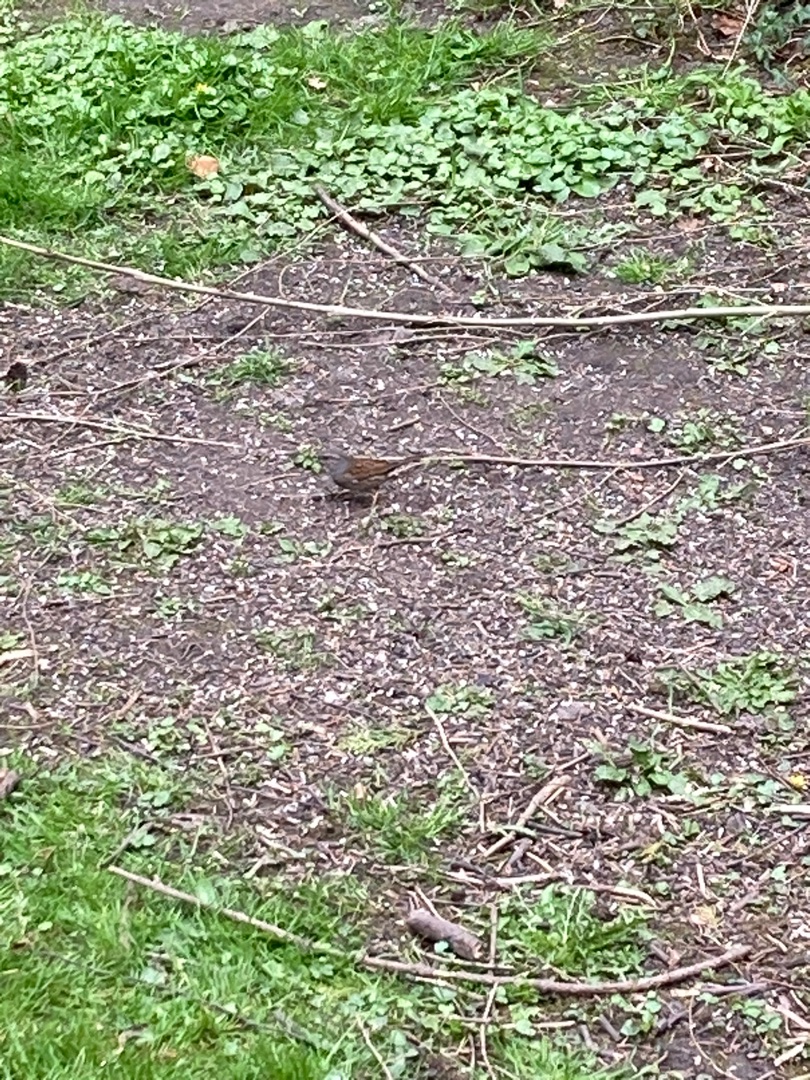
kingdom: Animalia
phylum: Chordata
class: Aves
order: Passeriformes
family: Prunellidae
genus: Prunella
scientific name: Prunella modularis
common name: Jernspurv
